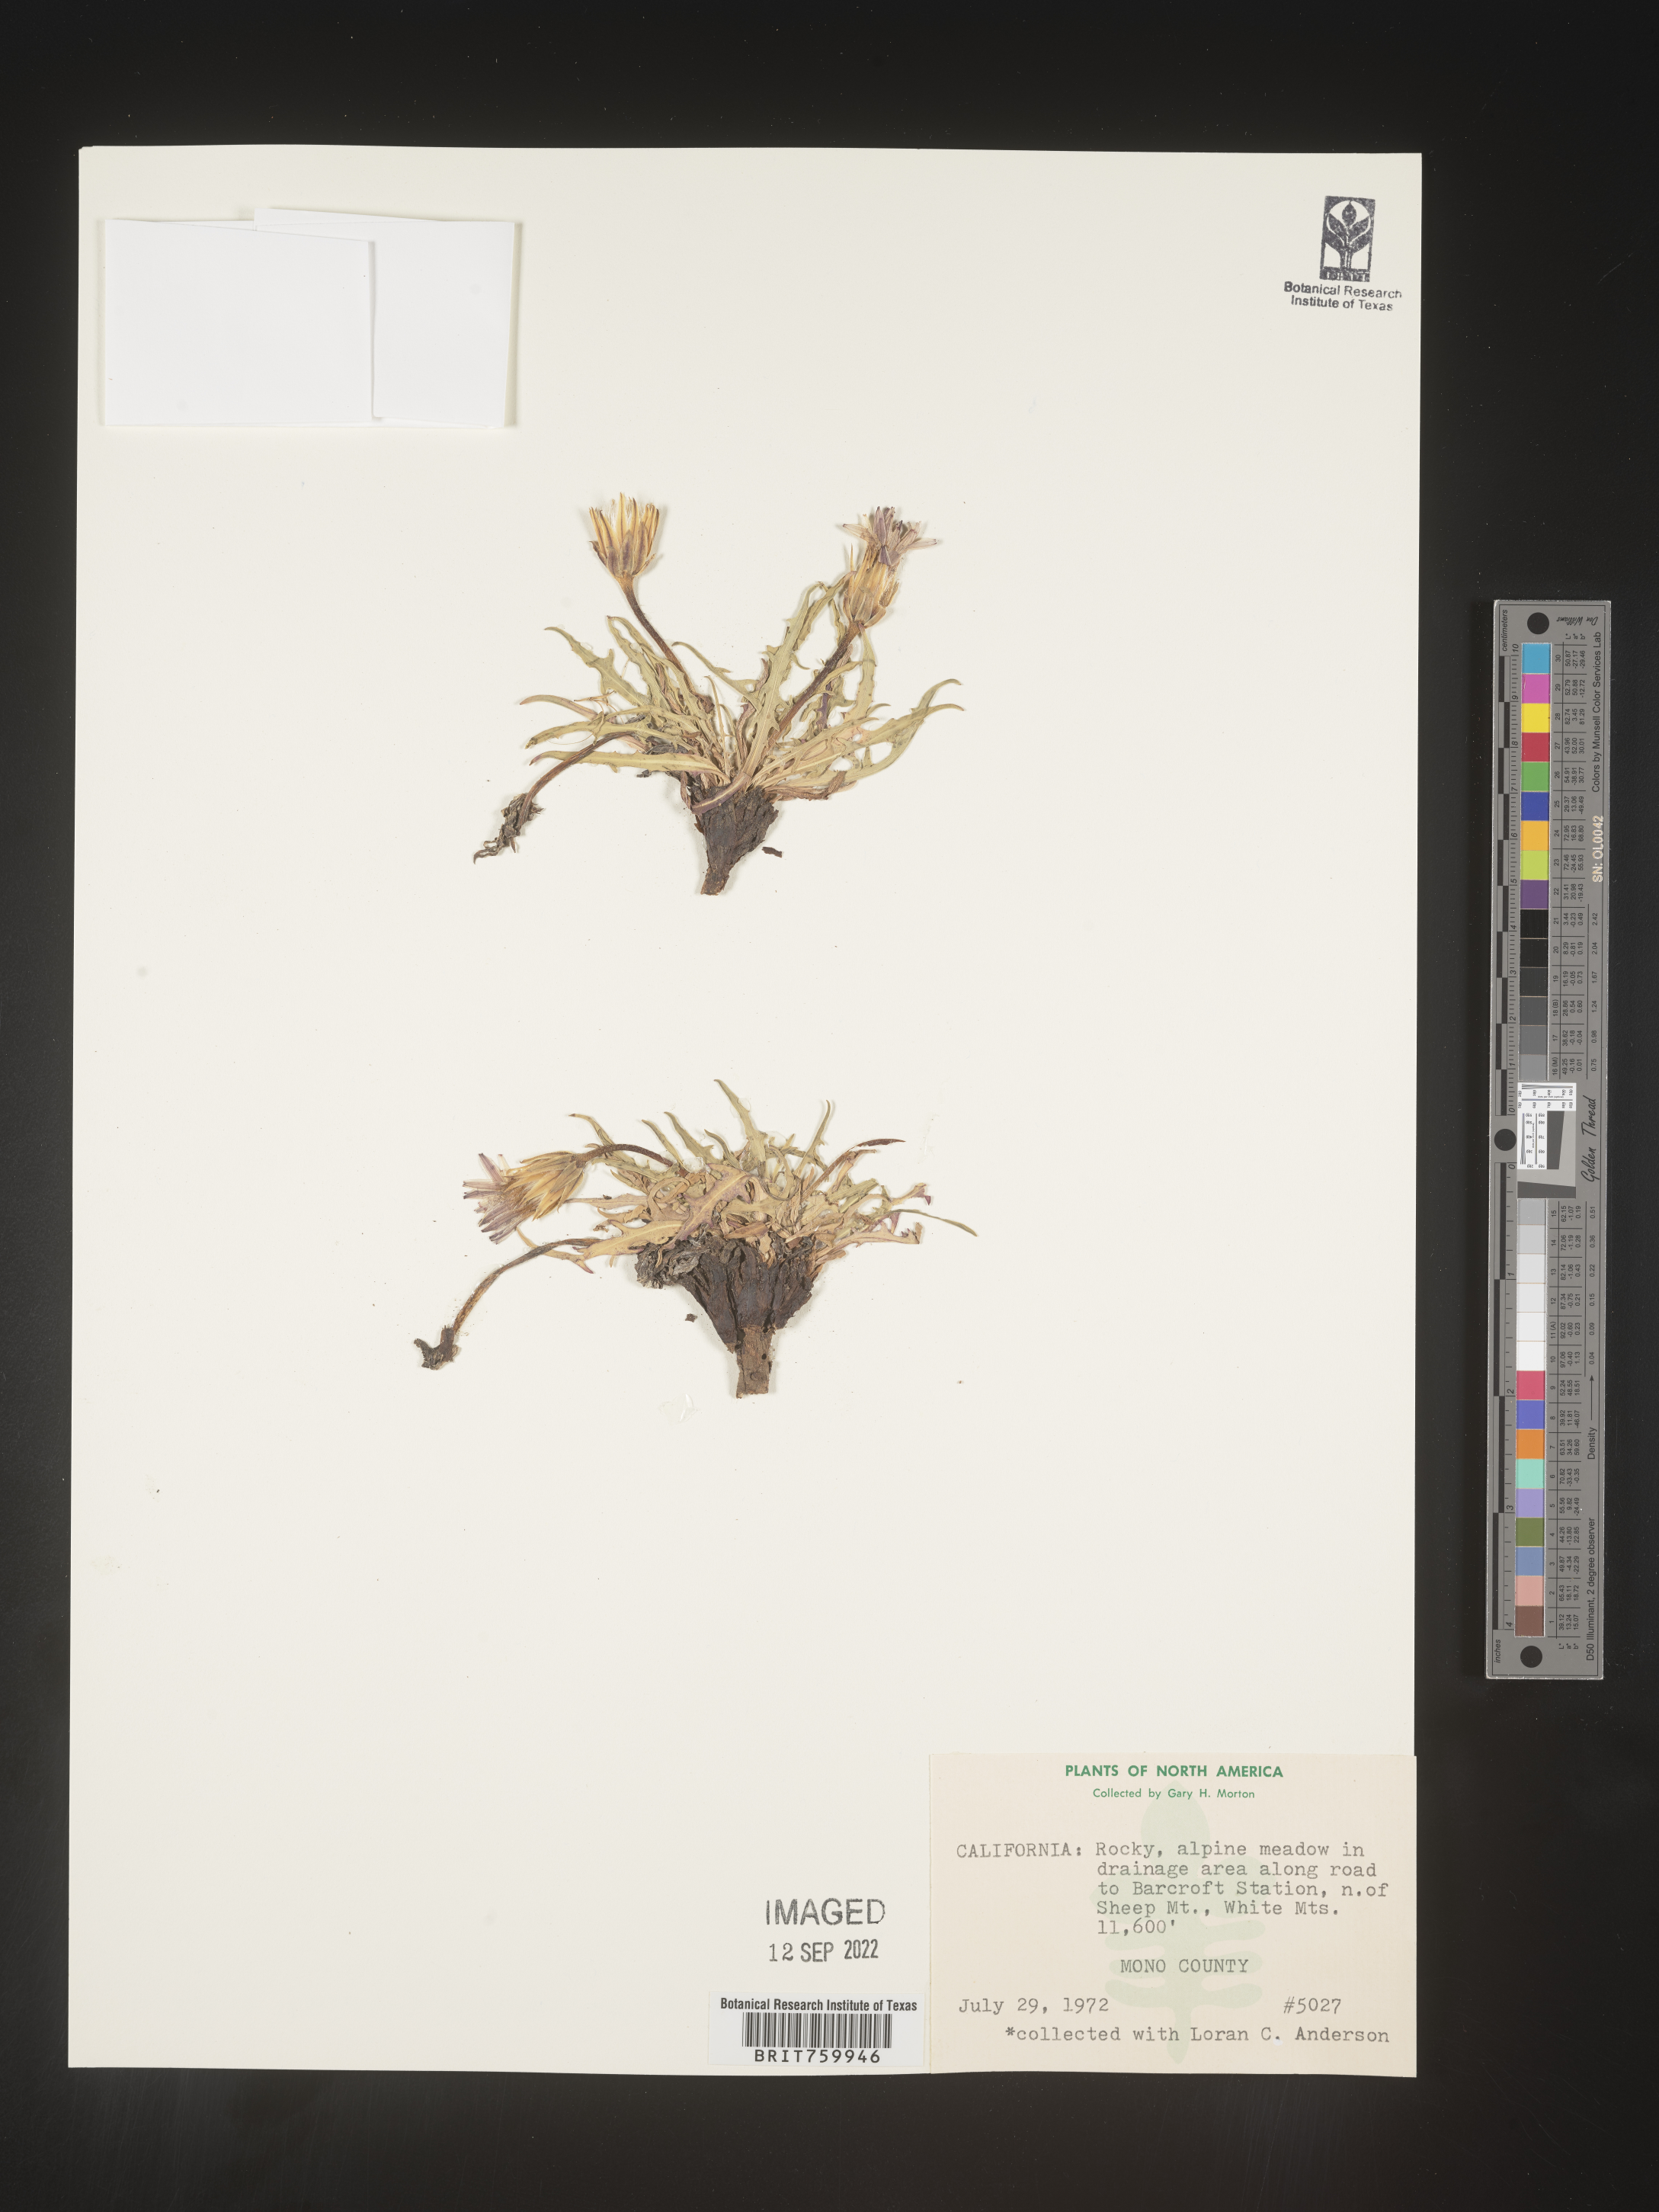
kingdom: Plantae
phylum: Tracheophyta
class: Magnoliopsida
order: Asterales
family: Asteraceae
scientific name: Asteraceae
